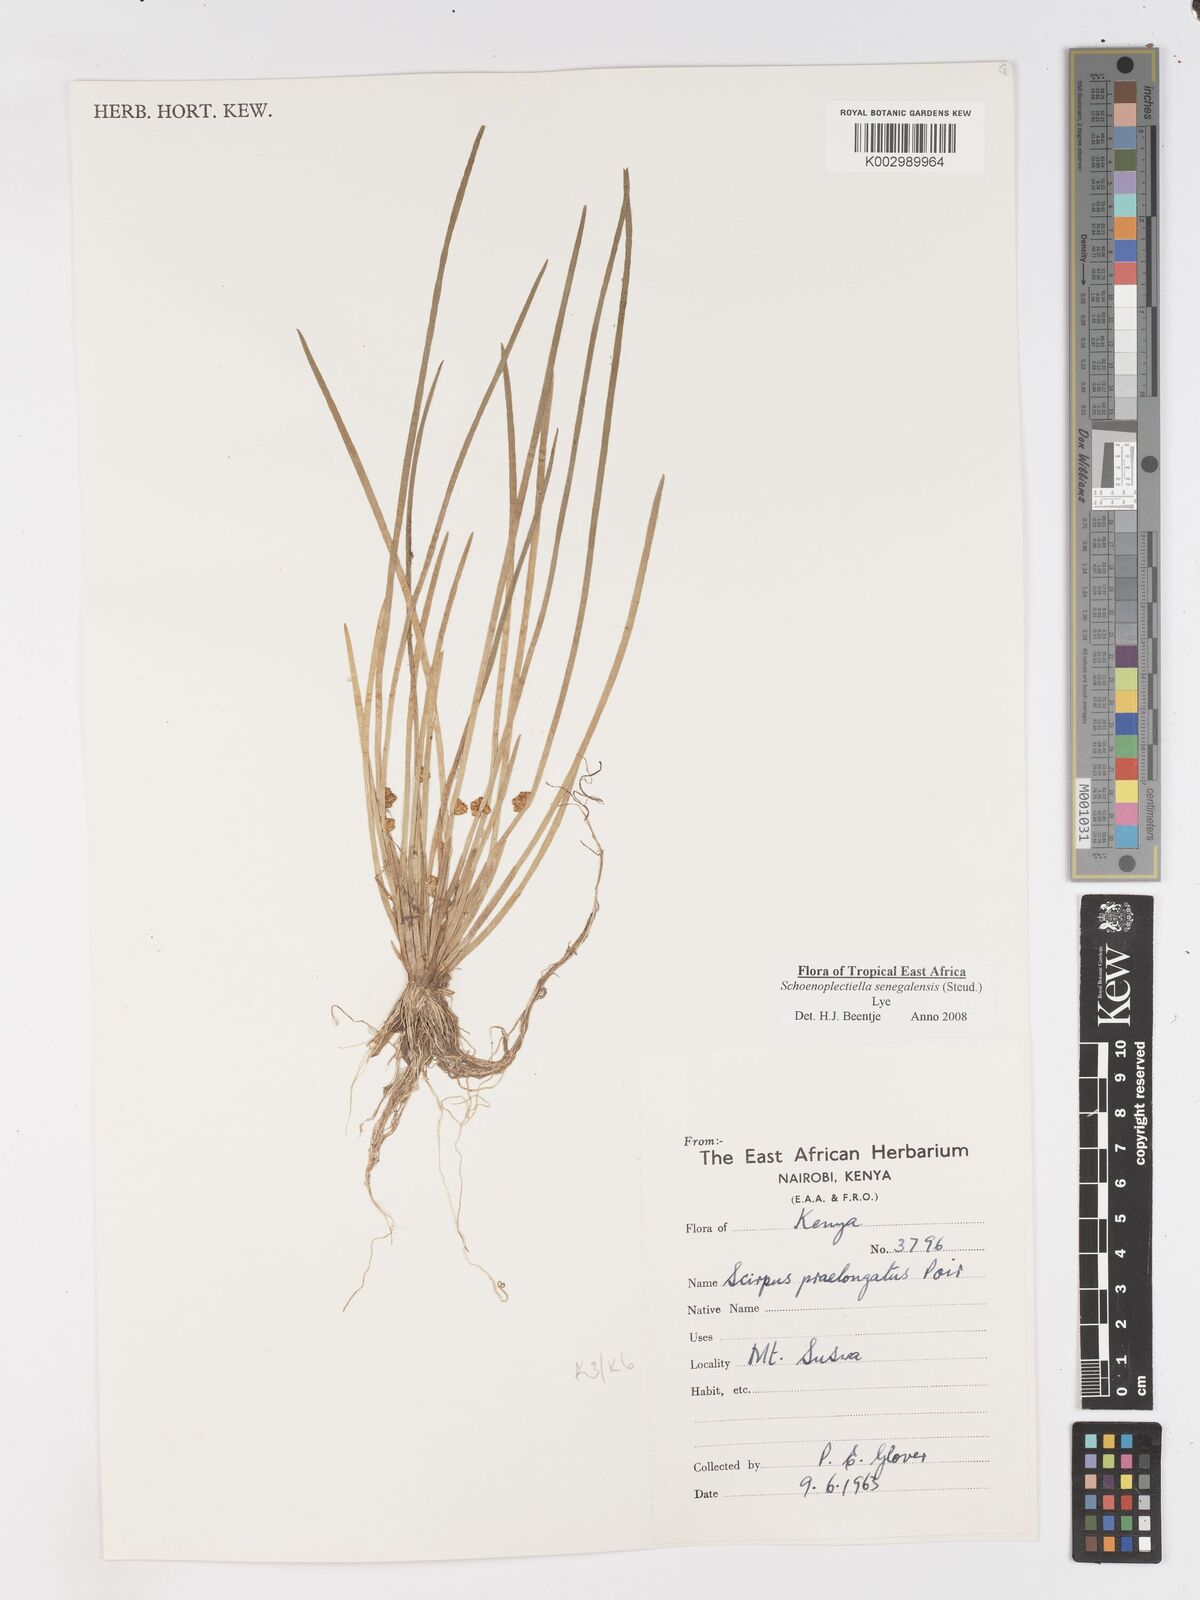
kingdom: Plantae
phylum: Tracheophyta
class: Liliopsida
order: Poales
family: Cyperaceae
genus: Schoenoplectiella
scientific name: Schoenoplectiella senegalensis
